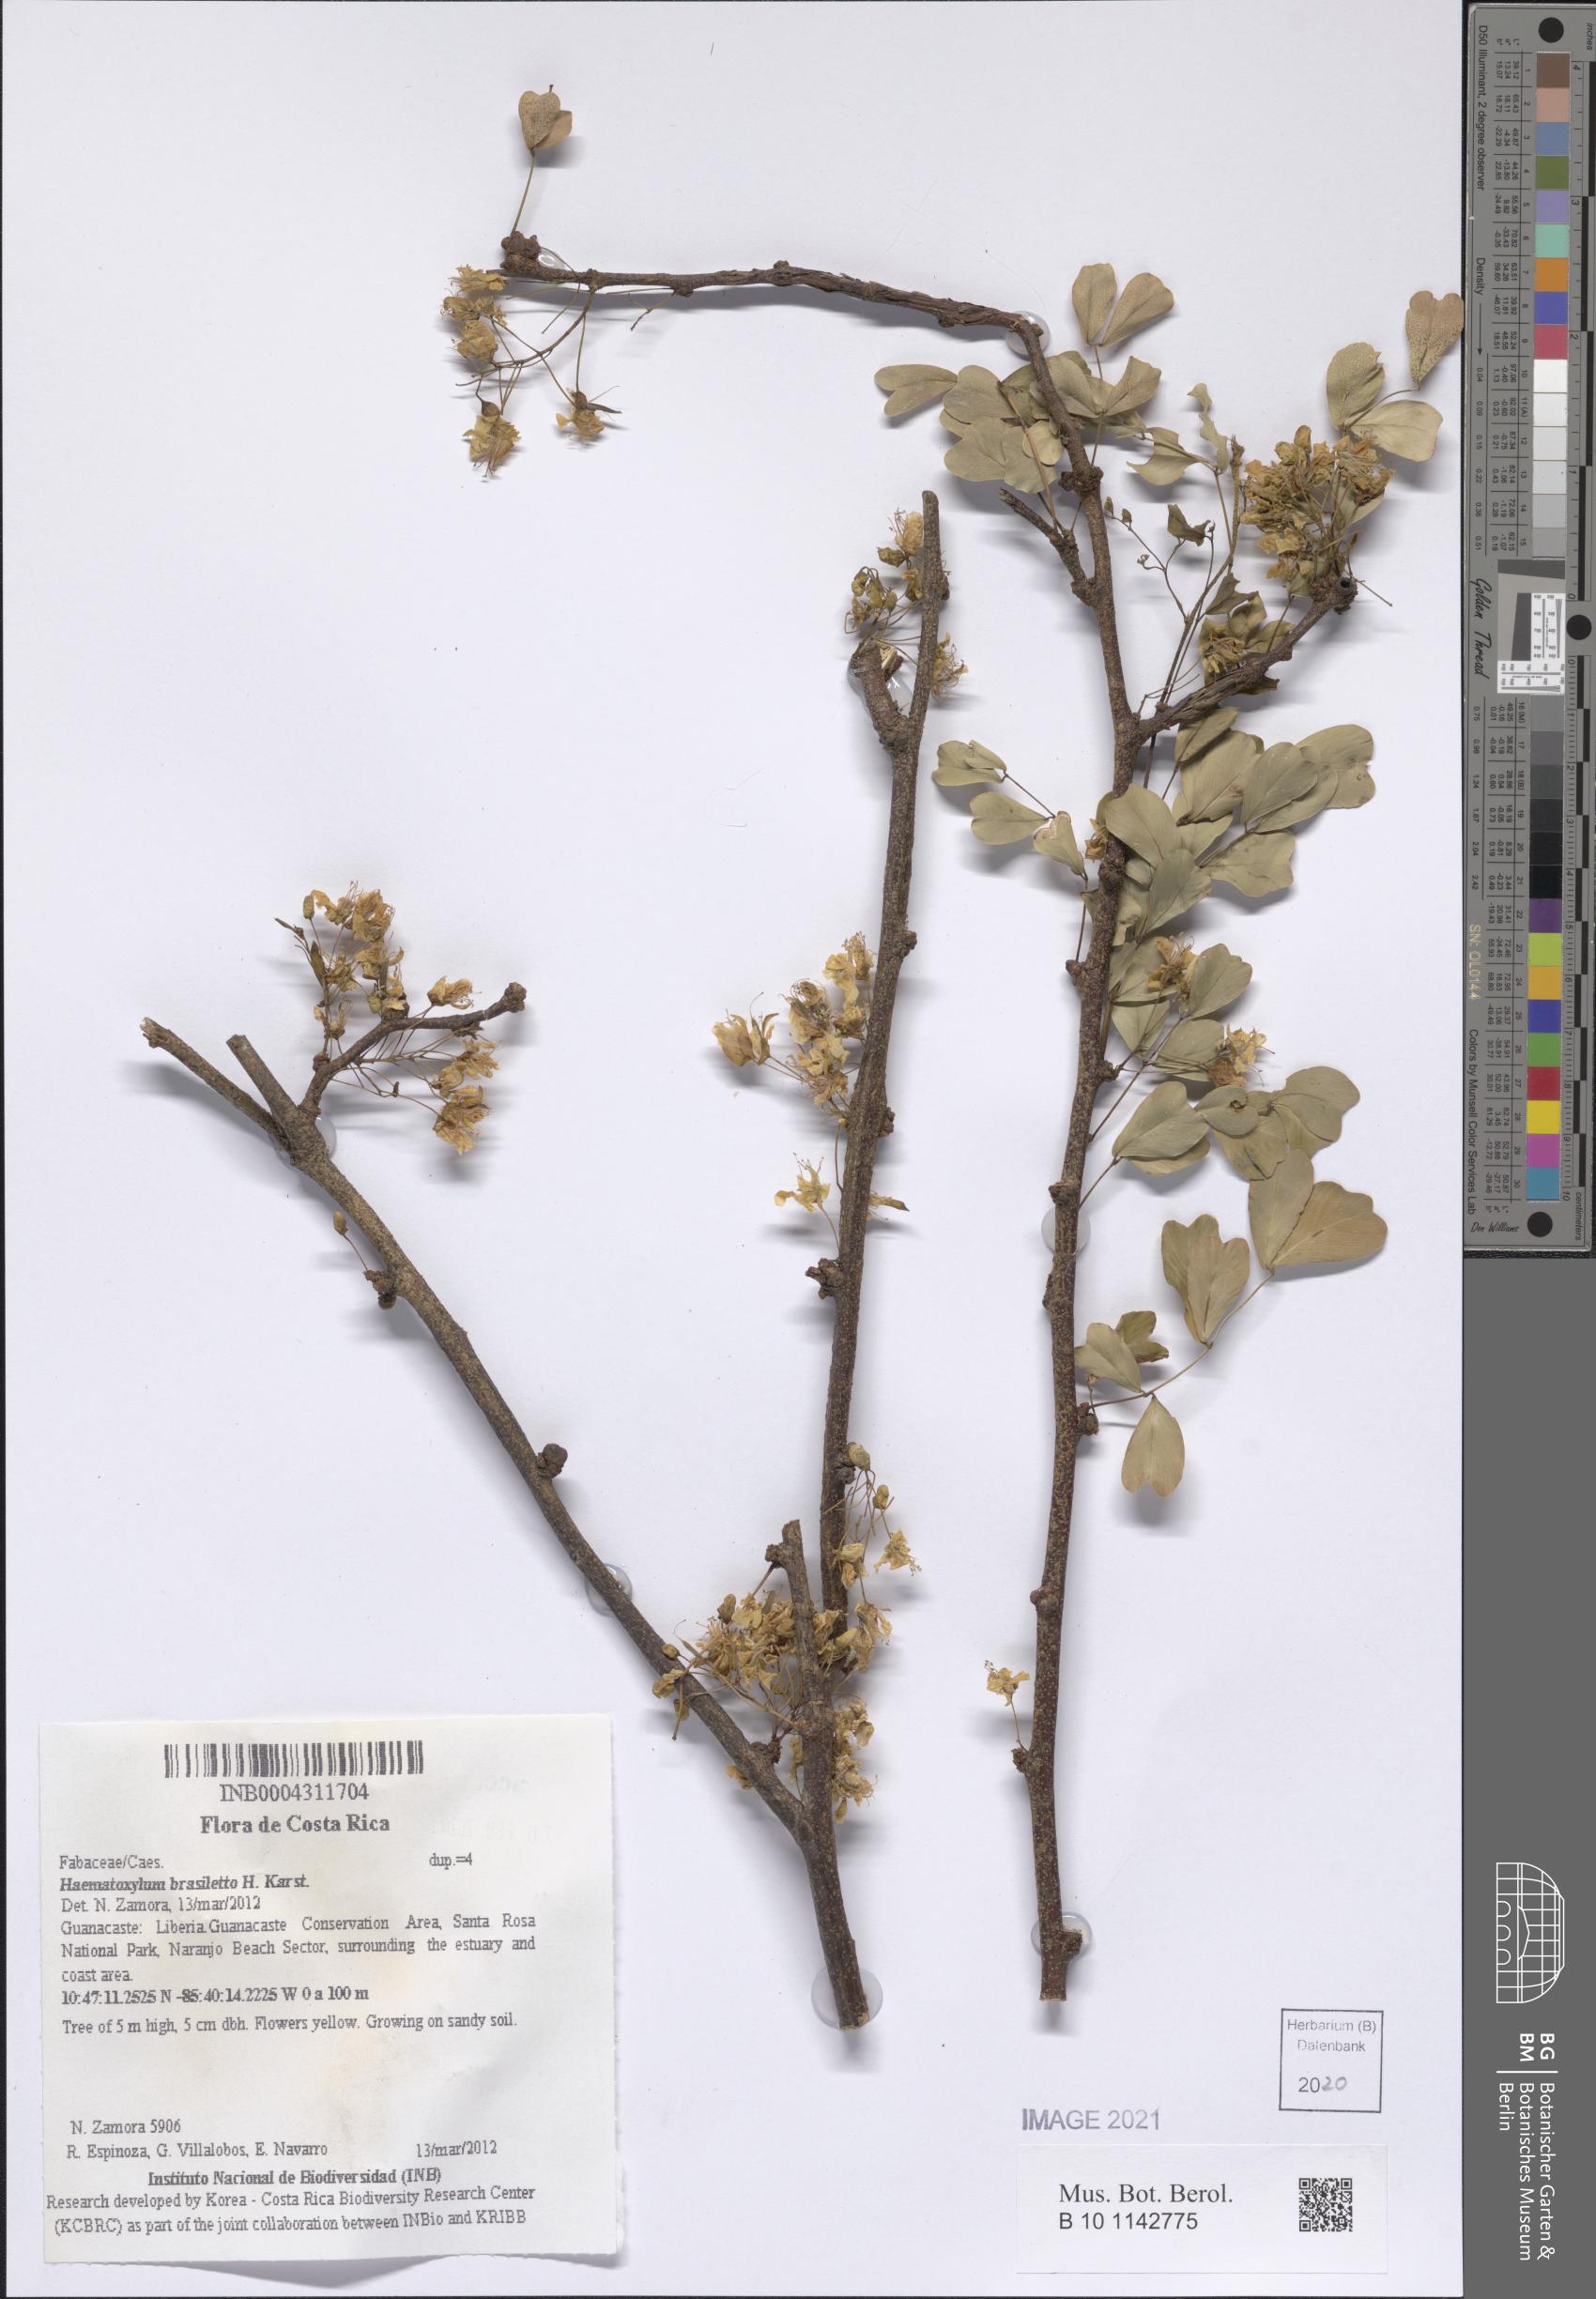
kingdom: Plantae
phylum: Tracheophyta
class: Magnoliopsida
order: Fabales
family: Fabaceae
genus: Haematoxylum
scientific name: Haematoxylum brasiletto
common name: Peachwood
